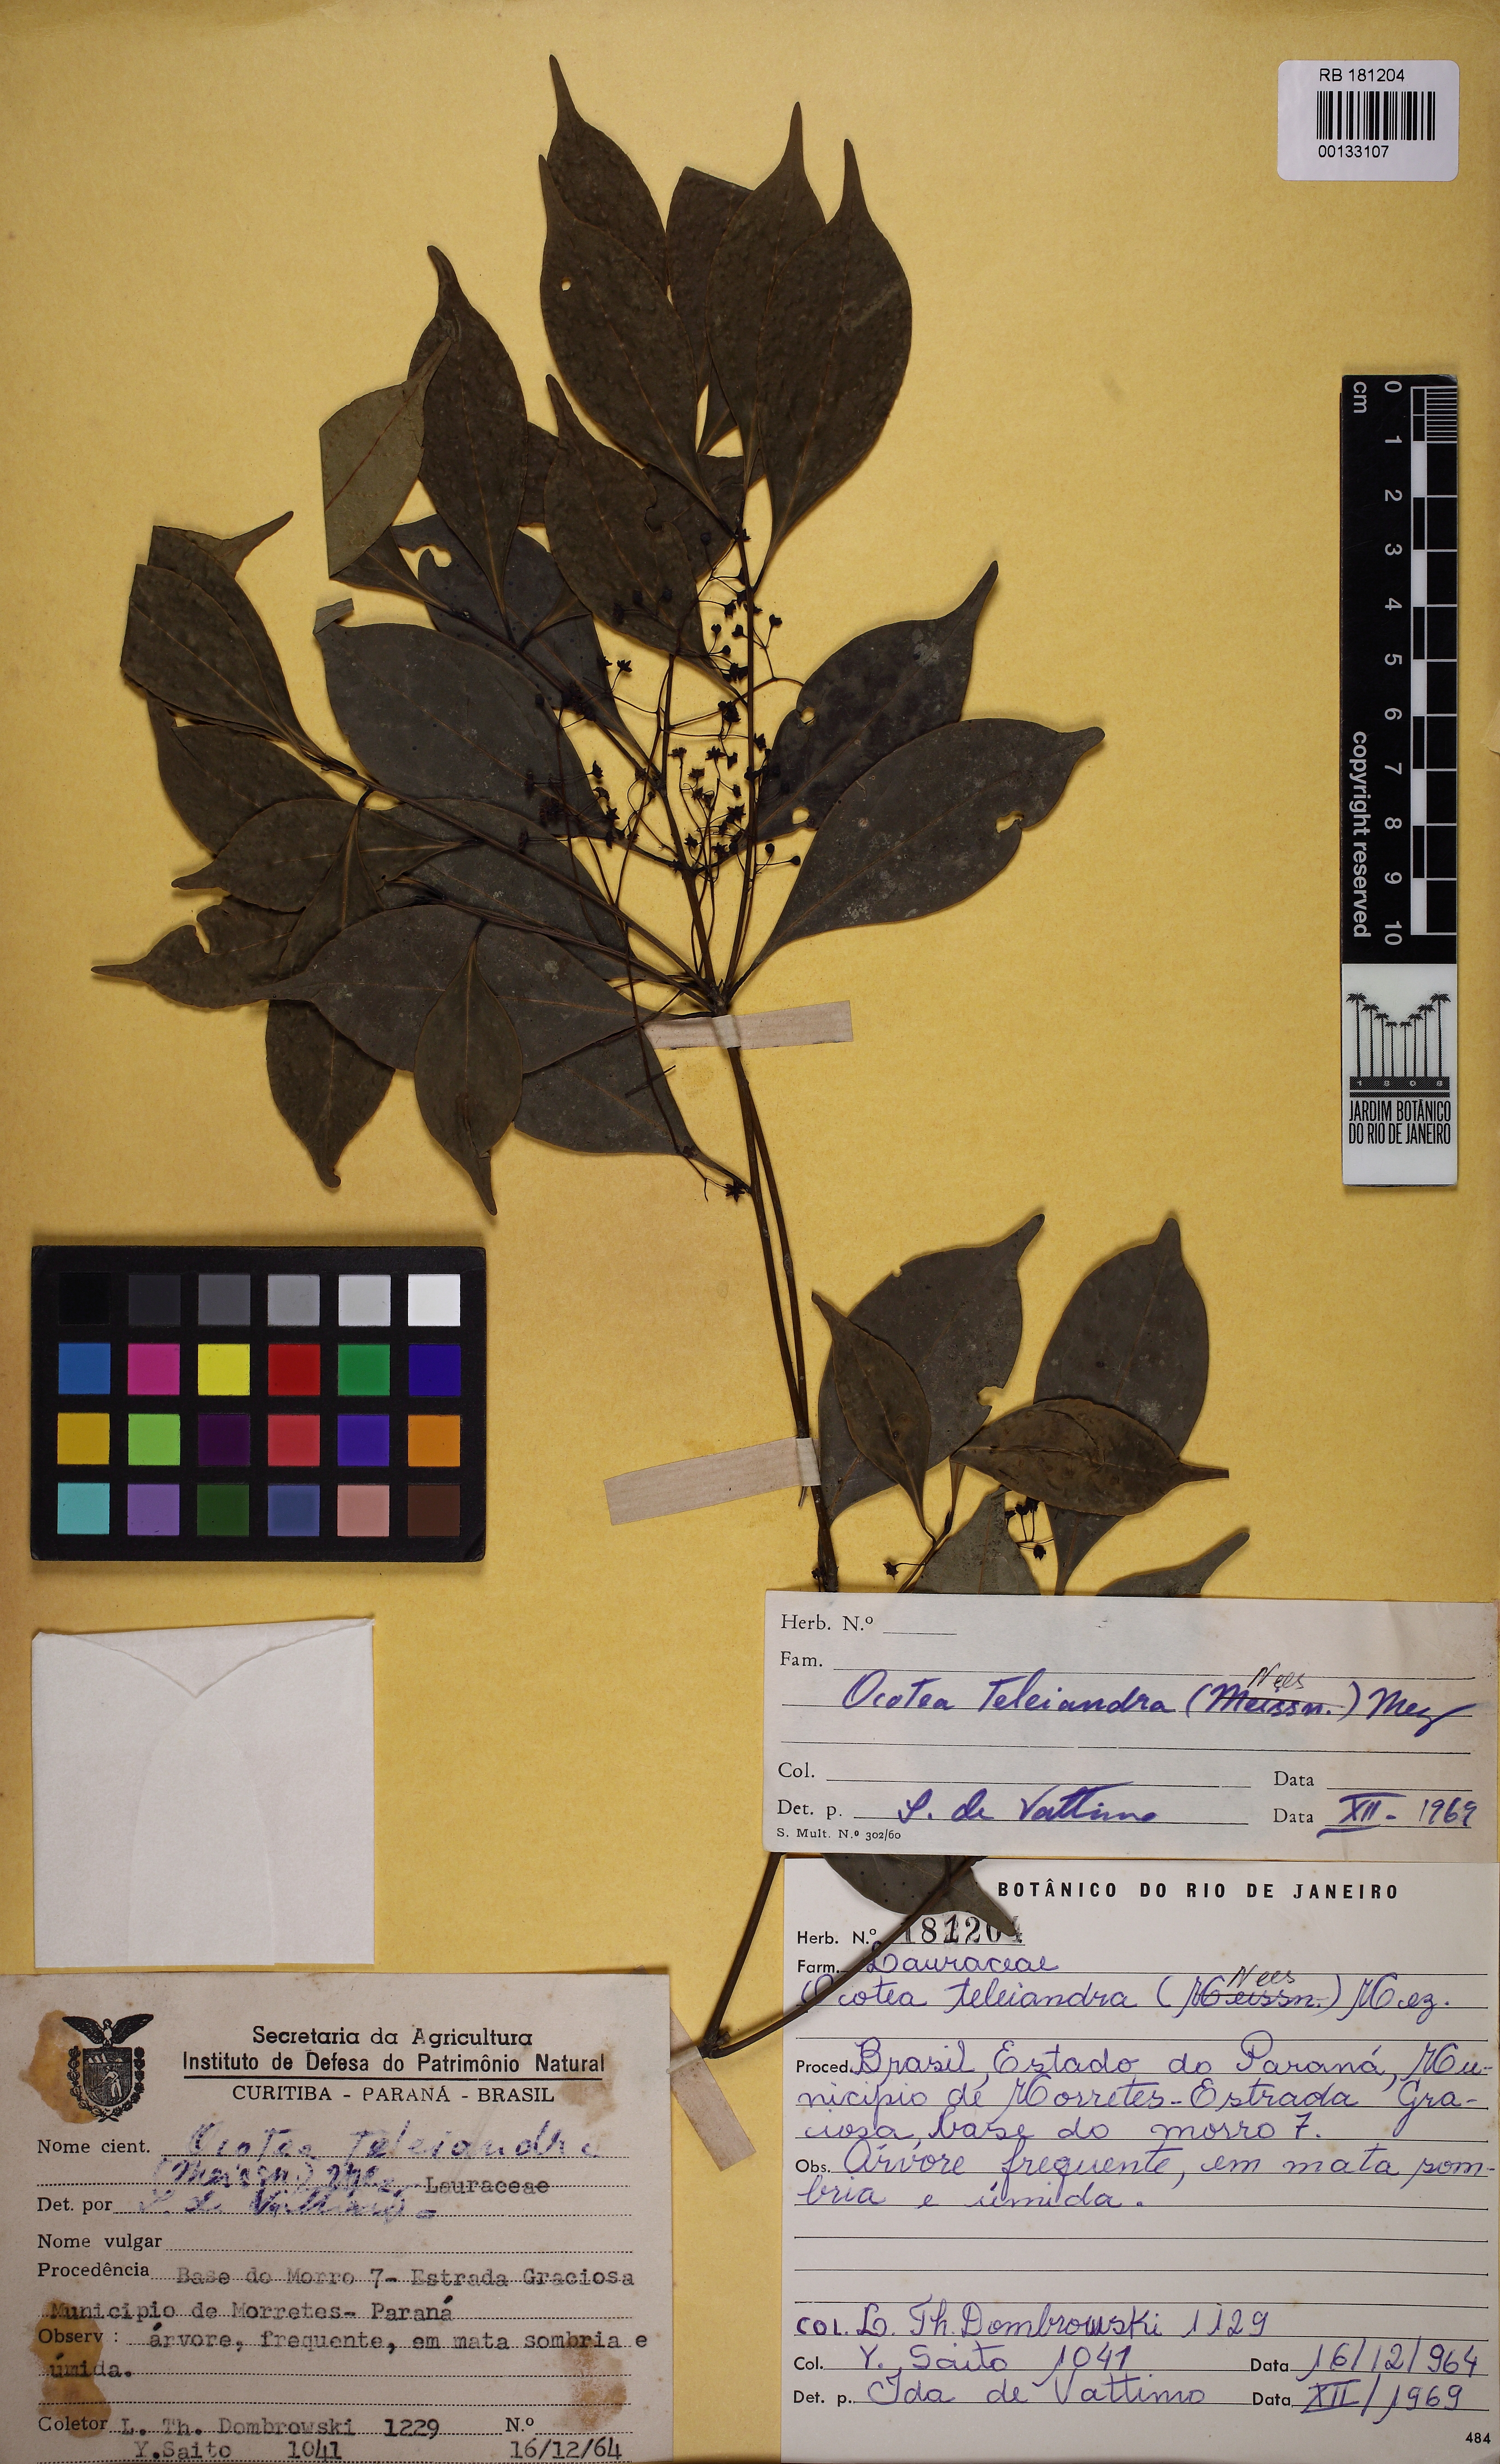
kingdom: Plantae
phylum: Tracheophyta
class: Magnoliopsida
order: Laurales
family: Lauraceae
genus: Ocotea
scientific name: Ocotea teleiandra
